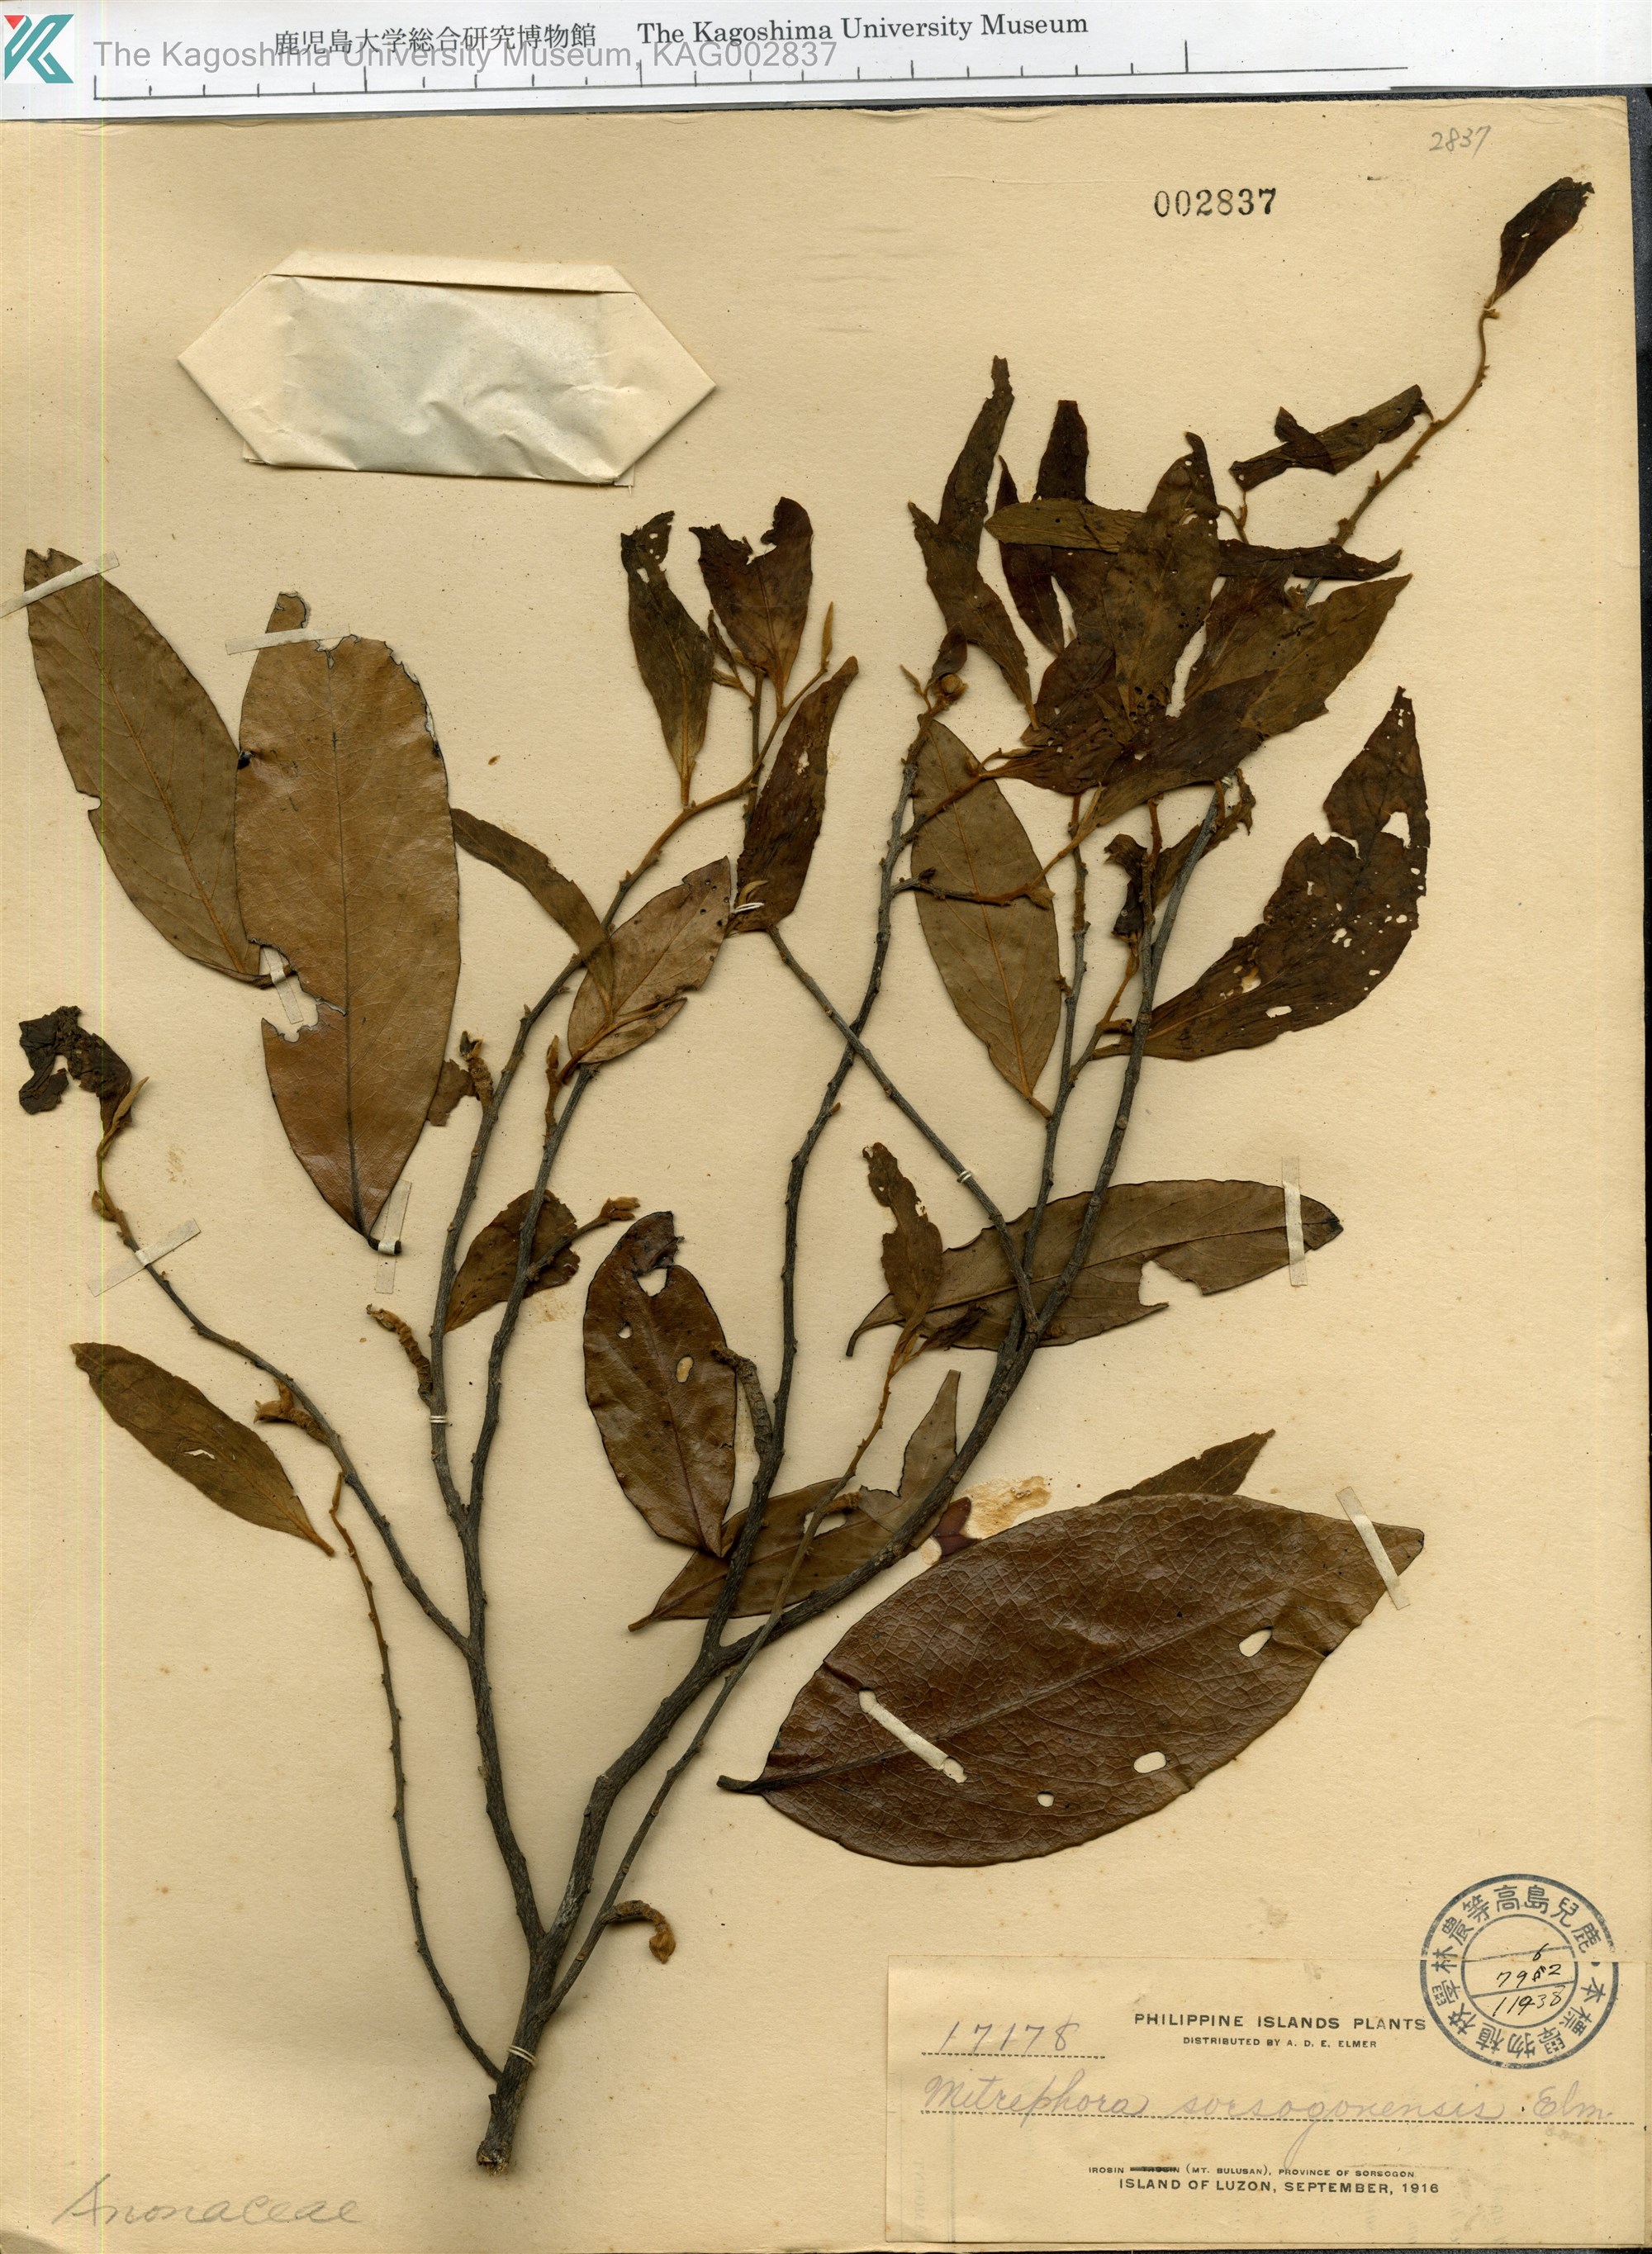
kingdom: Plantae
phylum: Tracheophyta
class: Magnoliopsida
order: Magnoliales
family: Annonaceae
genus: Mitrephora
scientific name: Mitrephora sorsogonensis
